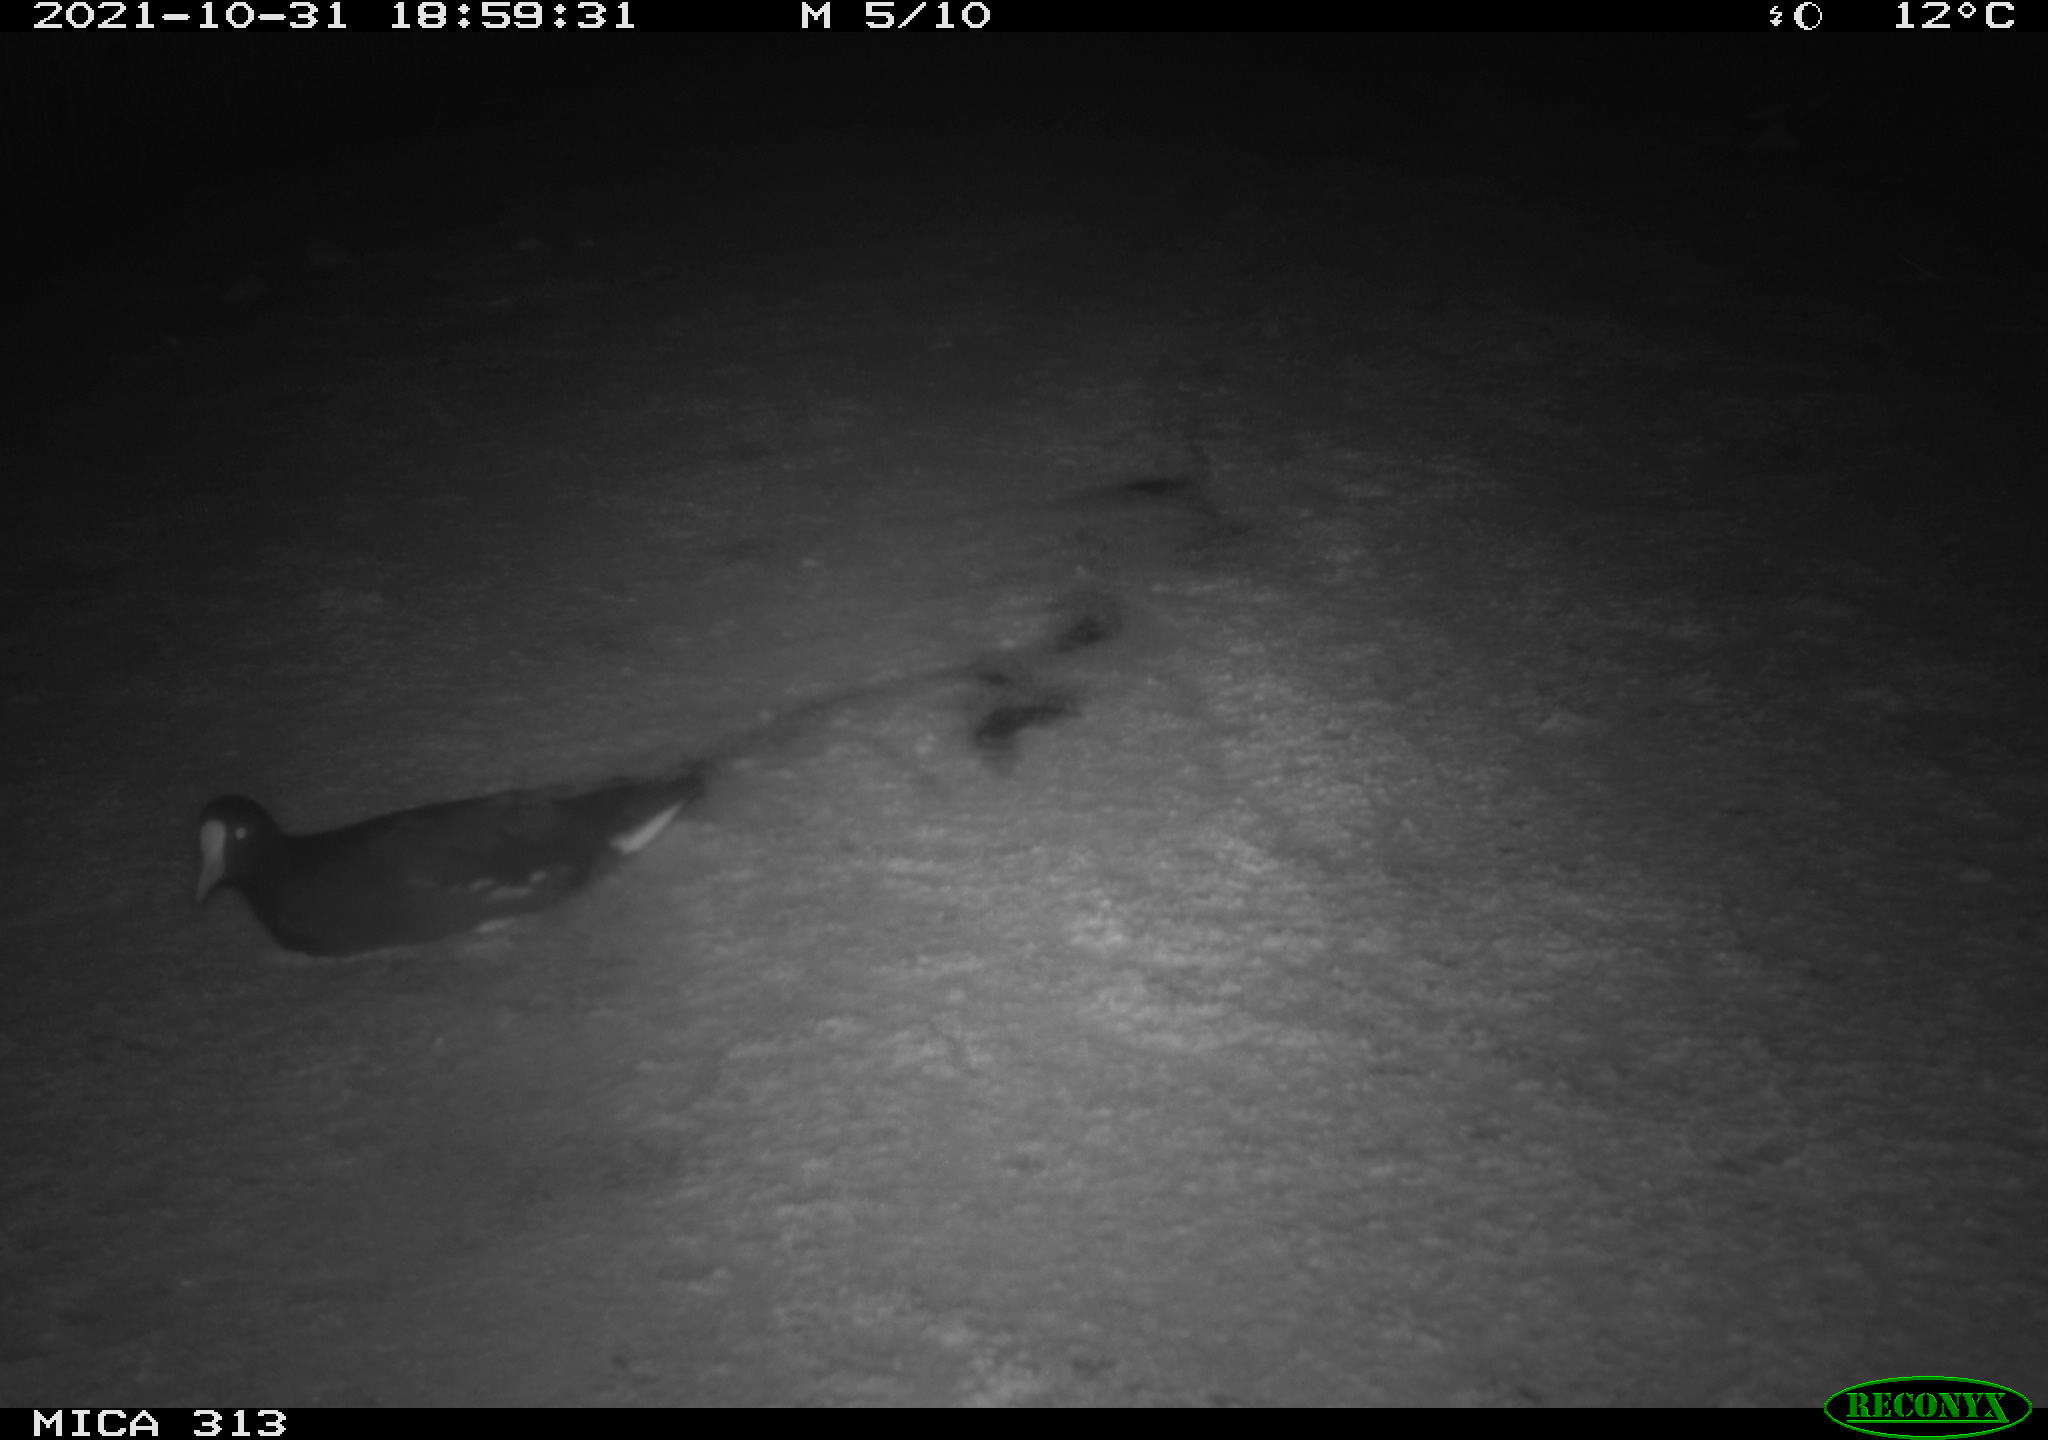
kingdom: Animalia
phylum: Chordata
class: Aves
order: Gruiformes
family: Rallidae
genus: Gallinula
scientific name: Gallinula chloropus
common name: Common moorhen
